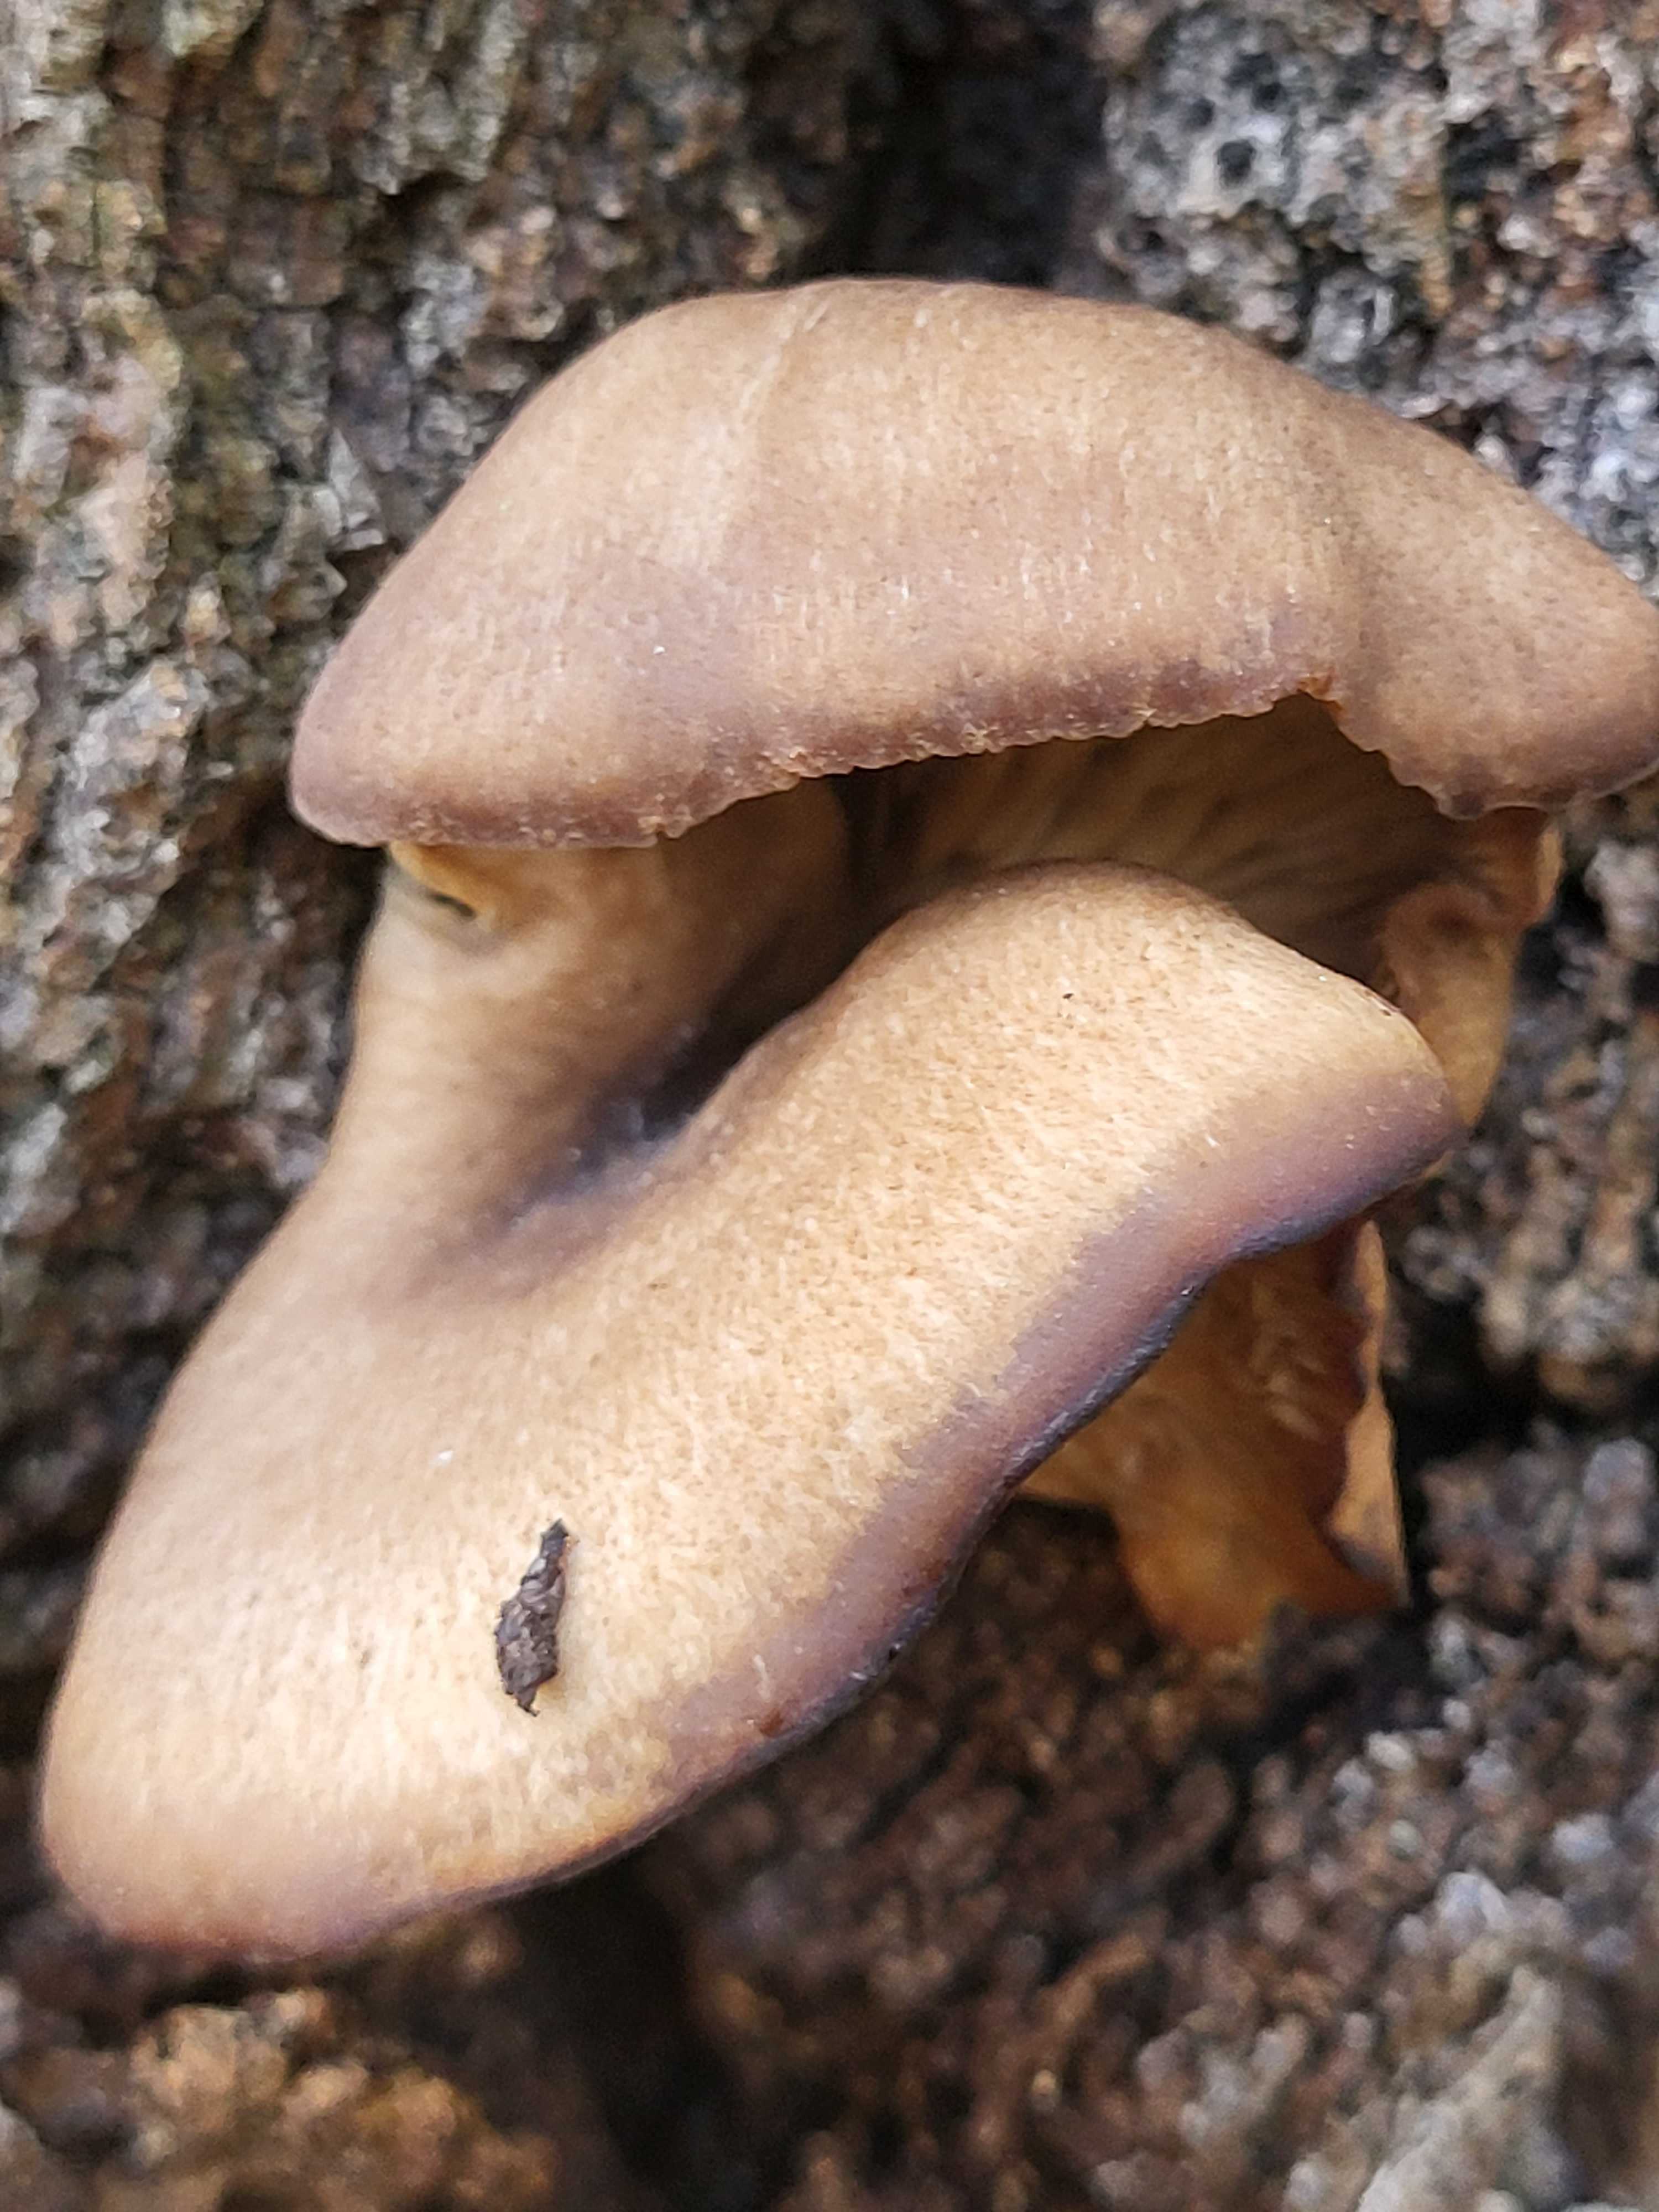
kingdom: Fungi
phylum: Basidiomycota
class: Agaricomycetes
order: Agaricales
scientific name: Agaricales
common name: champignonordenen
